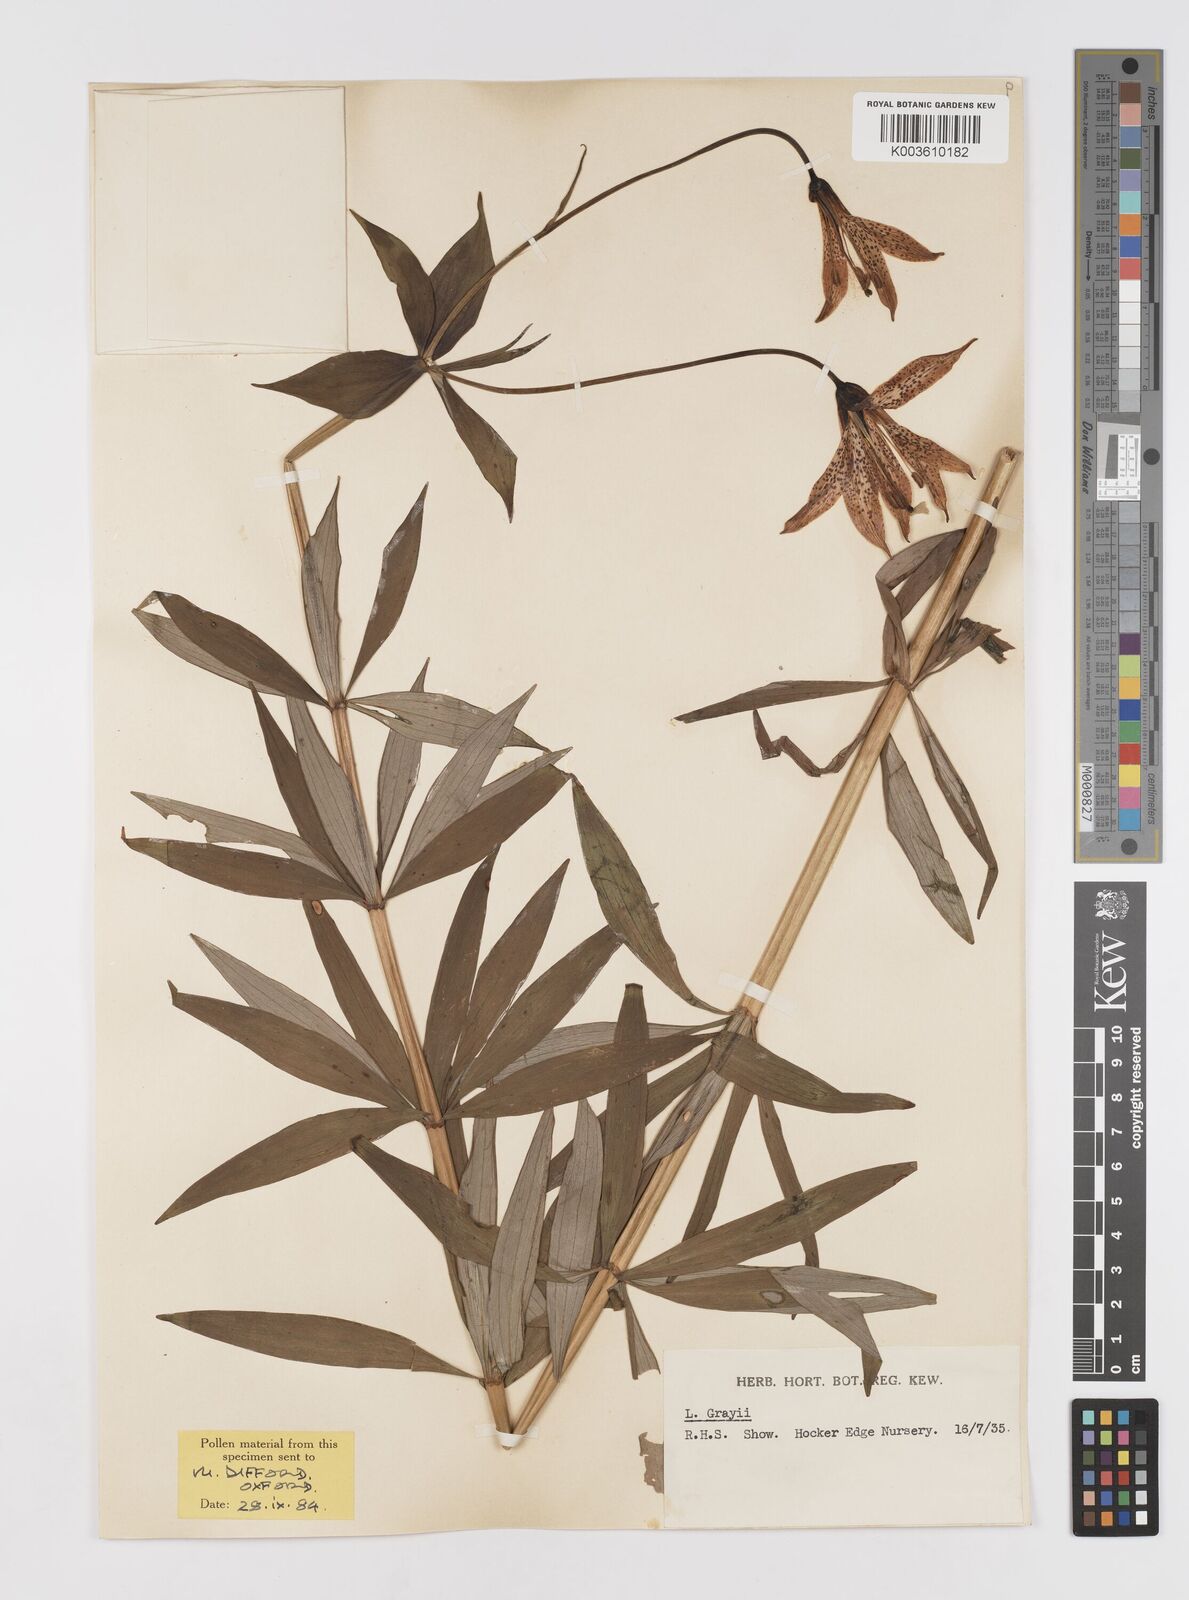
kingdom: Plantae
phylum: Tracheophyta
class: Liliopsida
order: Liliales
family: Liliaceae
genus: Lilium
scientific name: Lilium grayi
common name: Gray's lily
